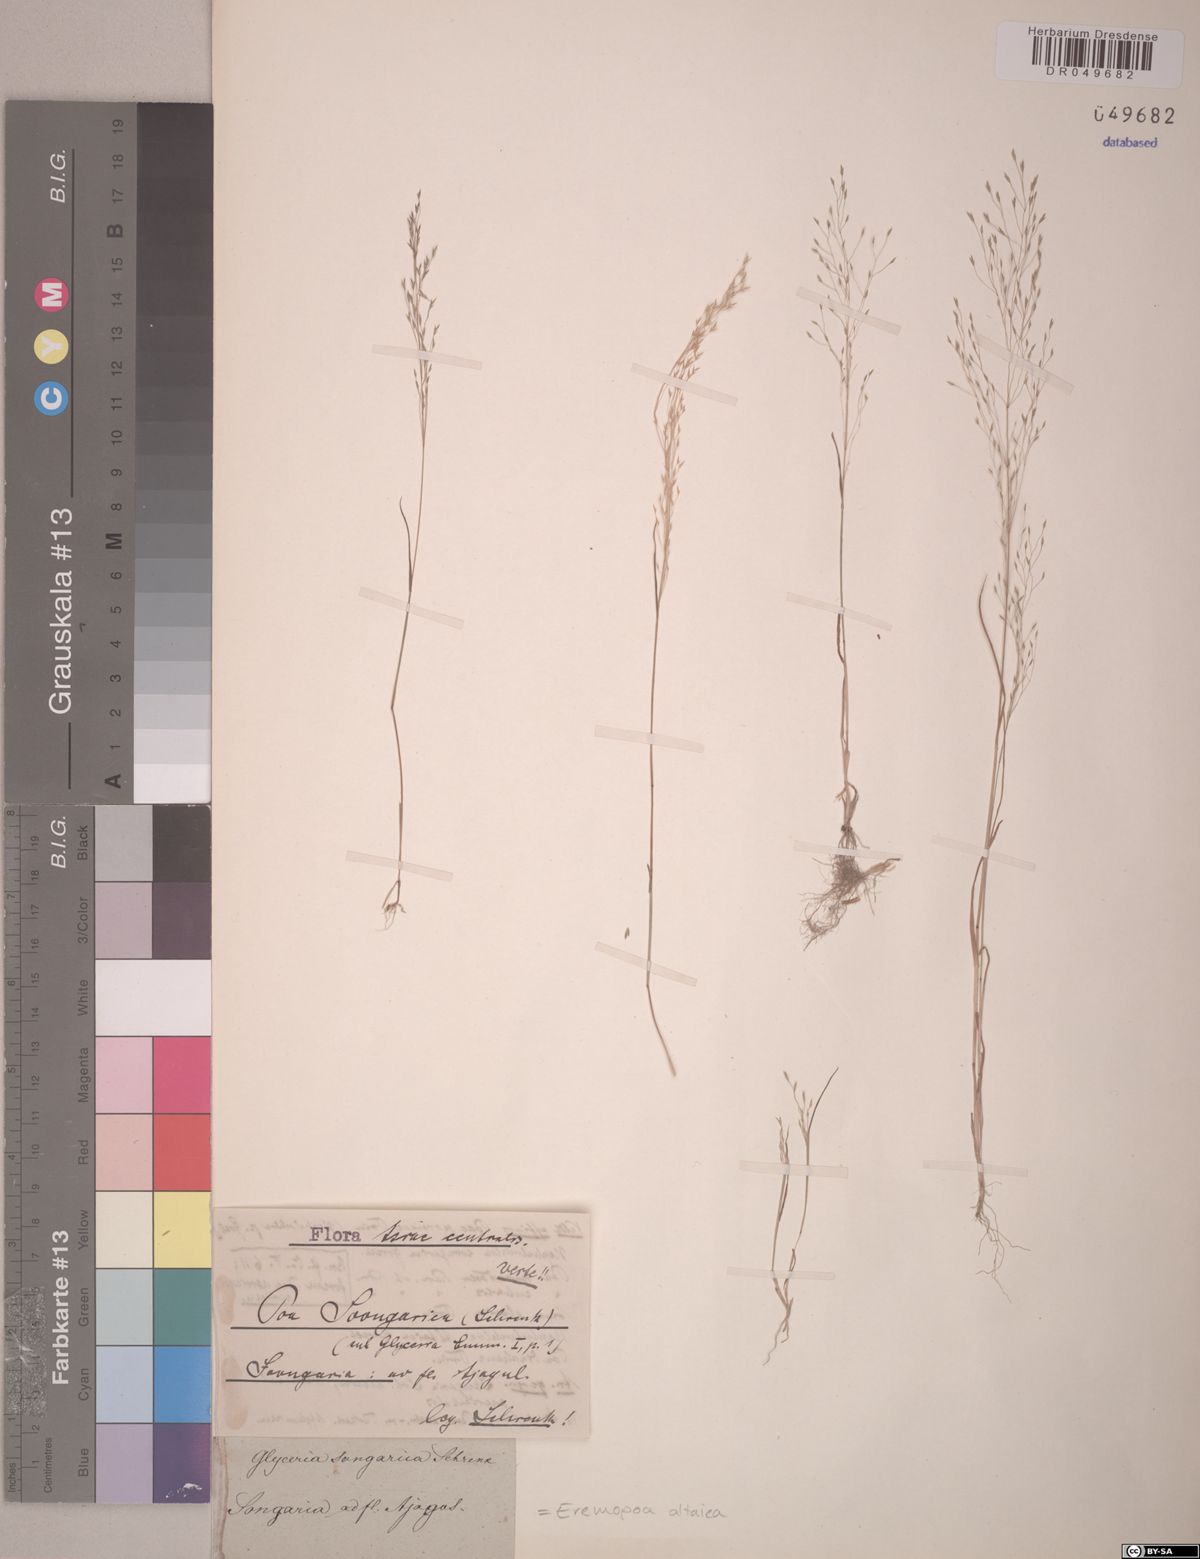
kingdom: Plantae
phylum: Tracheophyta
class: Liliopsida
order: Poales
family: Poaceae
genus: Poa
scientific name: Poa diaphora
